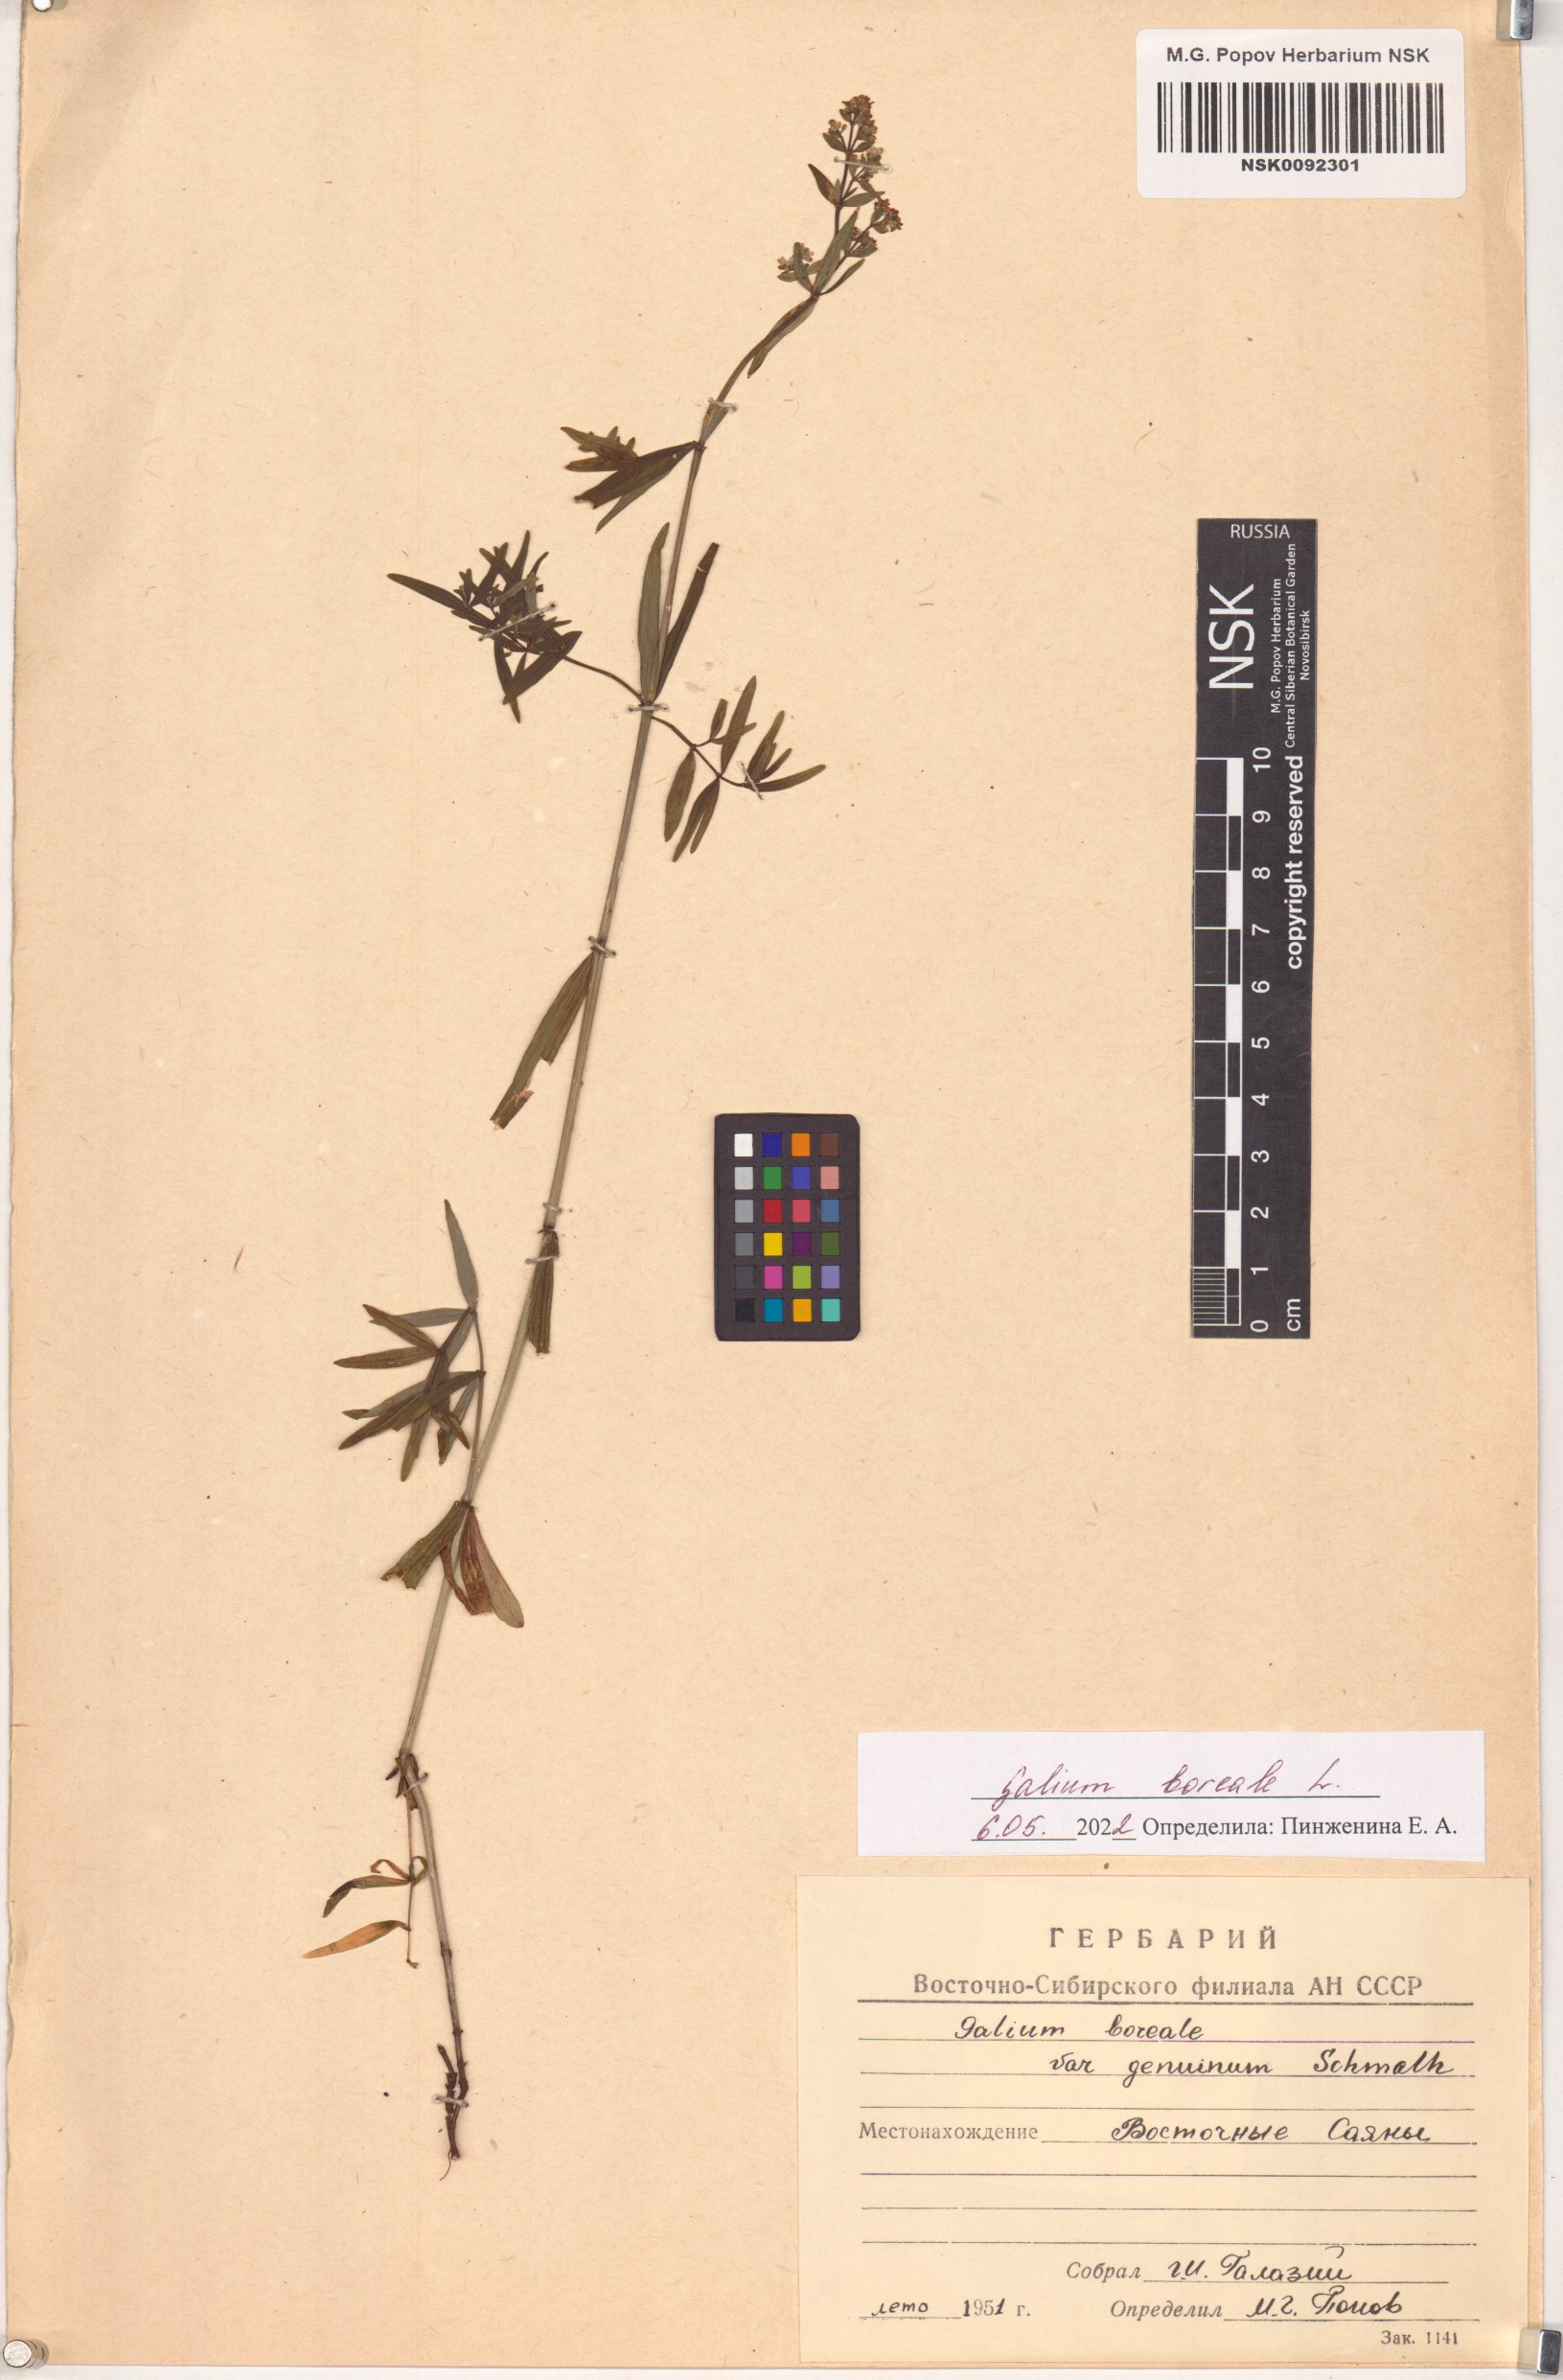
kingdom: Plantae
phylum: Tracheophyta
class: Magnoliopsida
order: Gentianales
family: Rubiaceae
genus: Galium
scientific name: Galium boreale
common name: Northern bedstraw
